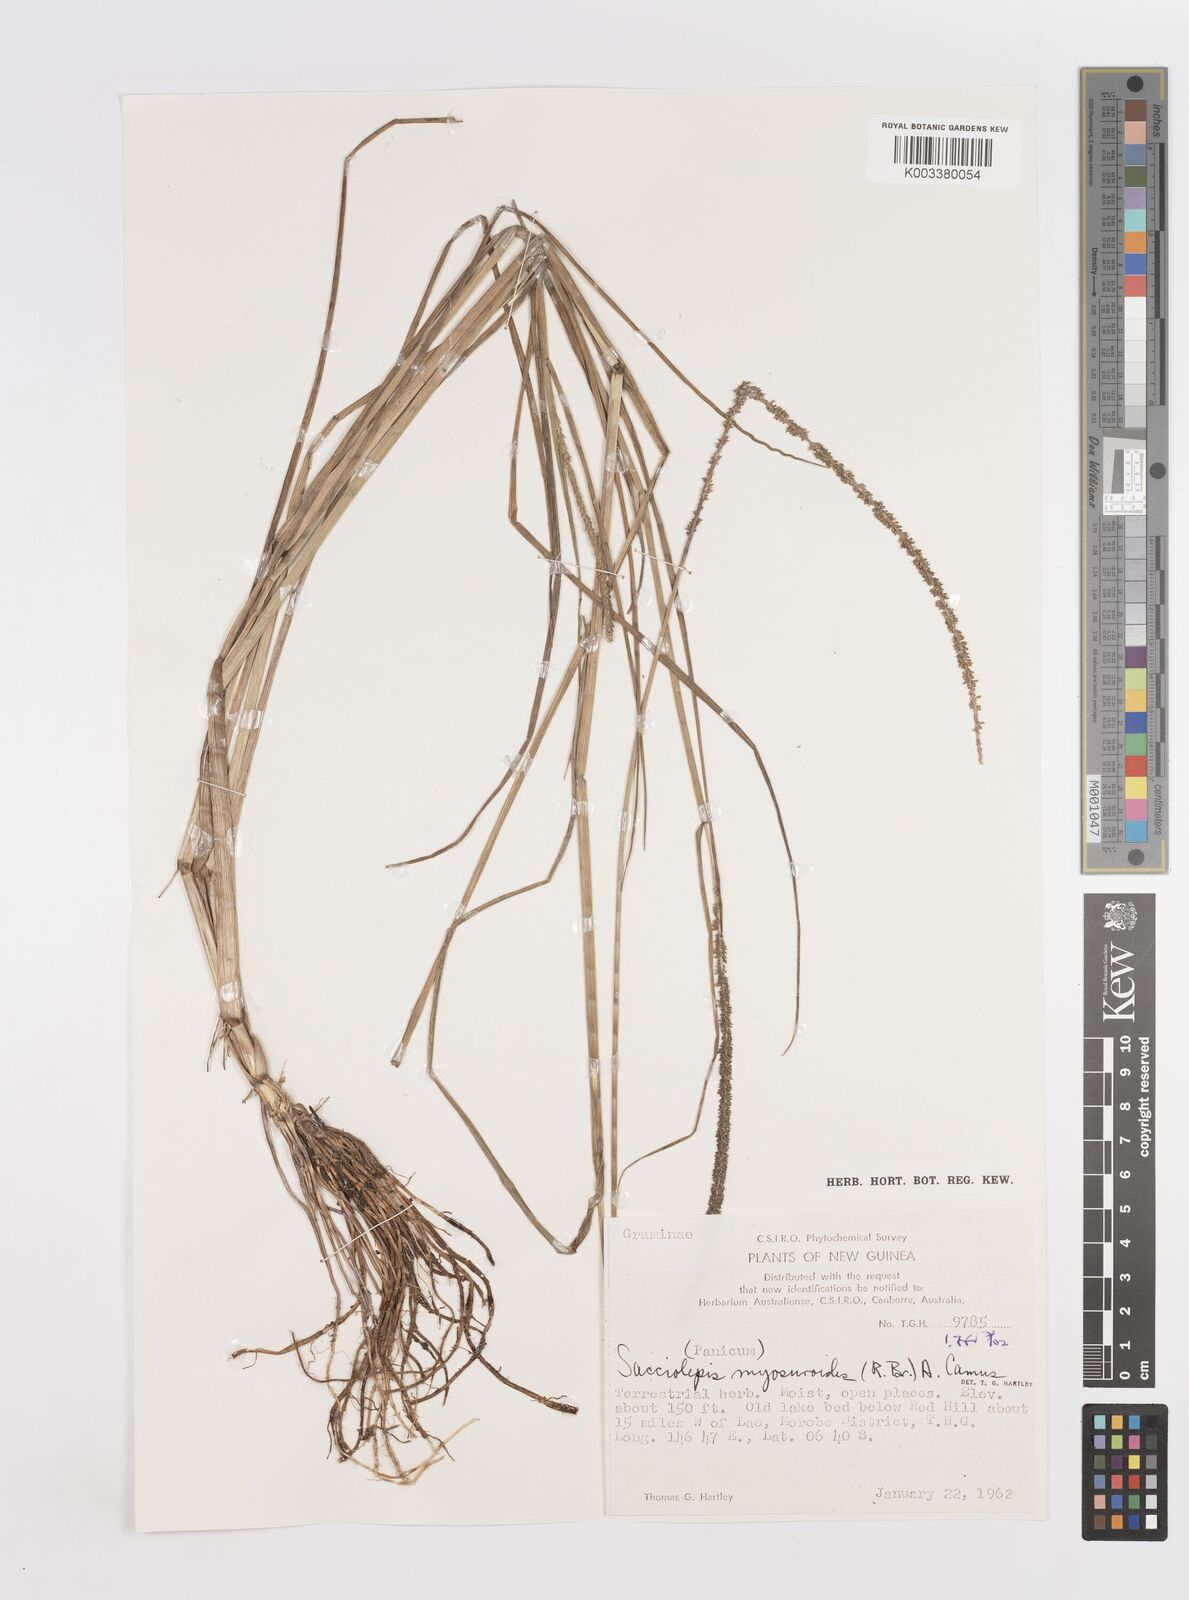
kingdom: Plantae
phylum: Tracheophyta
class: Liliopsida
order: Poales
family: Poaceae
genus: Sacciolepis
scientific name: Sacciolepis myosuroides
